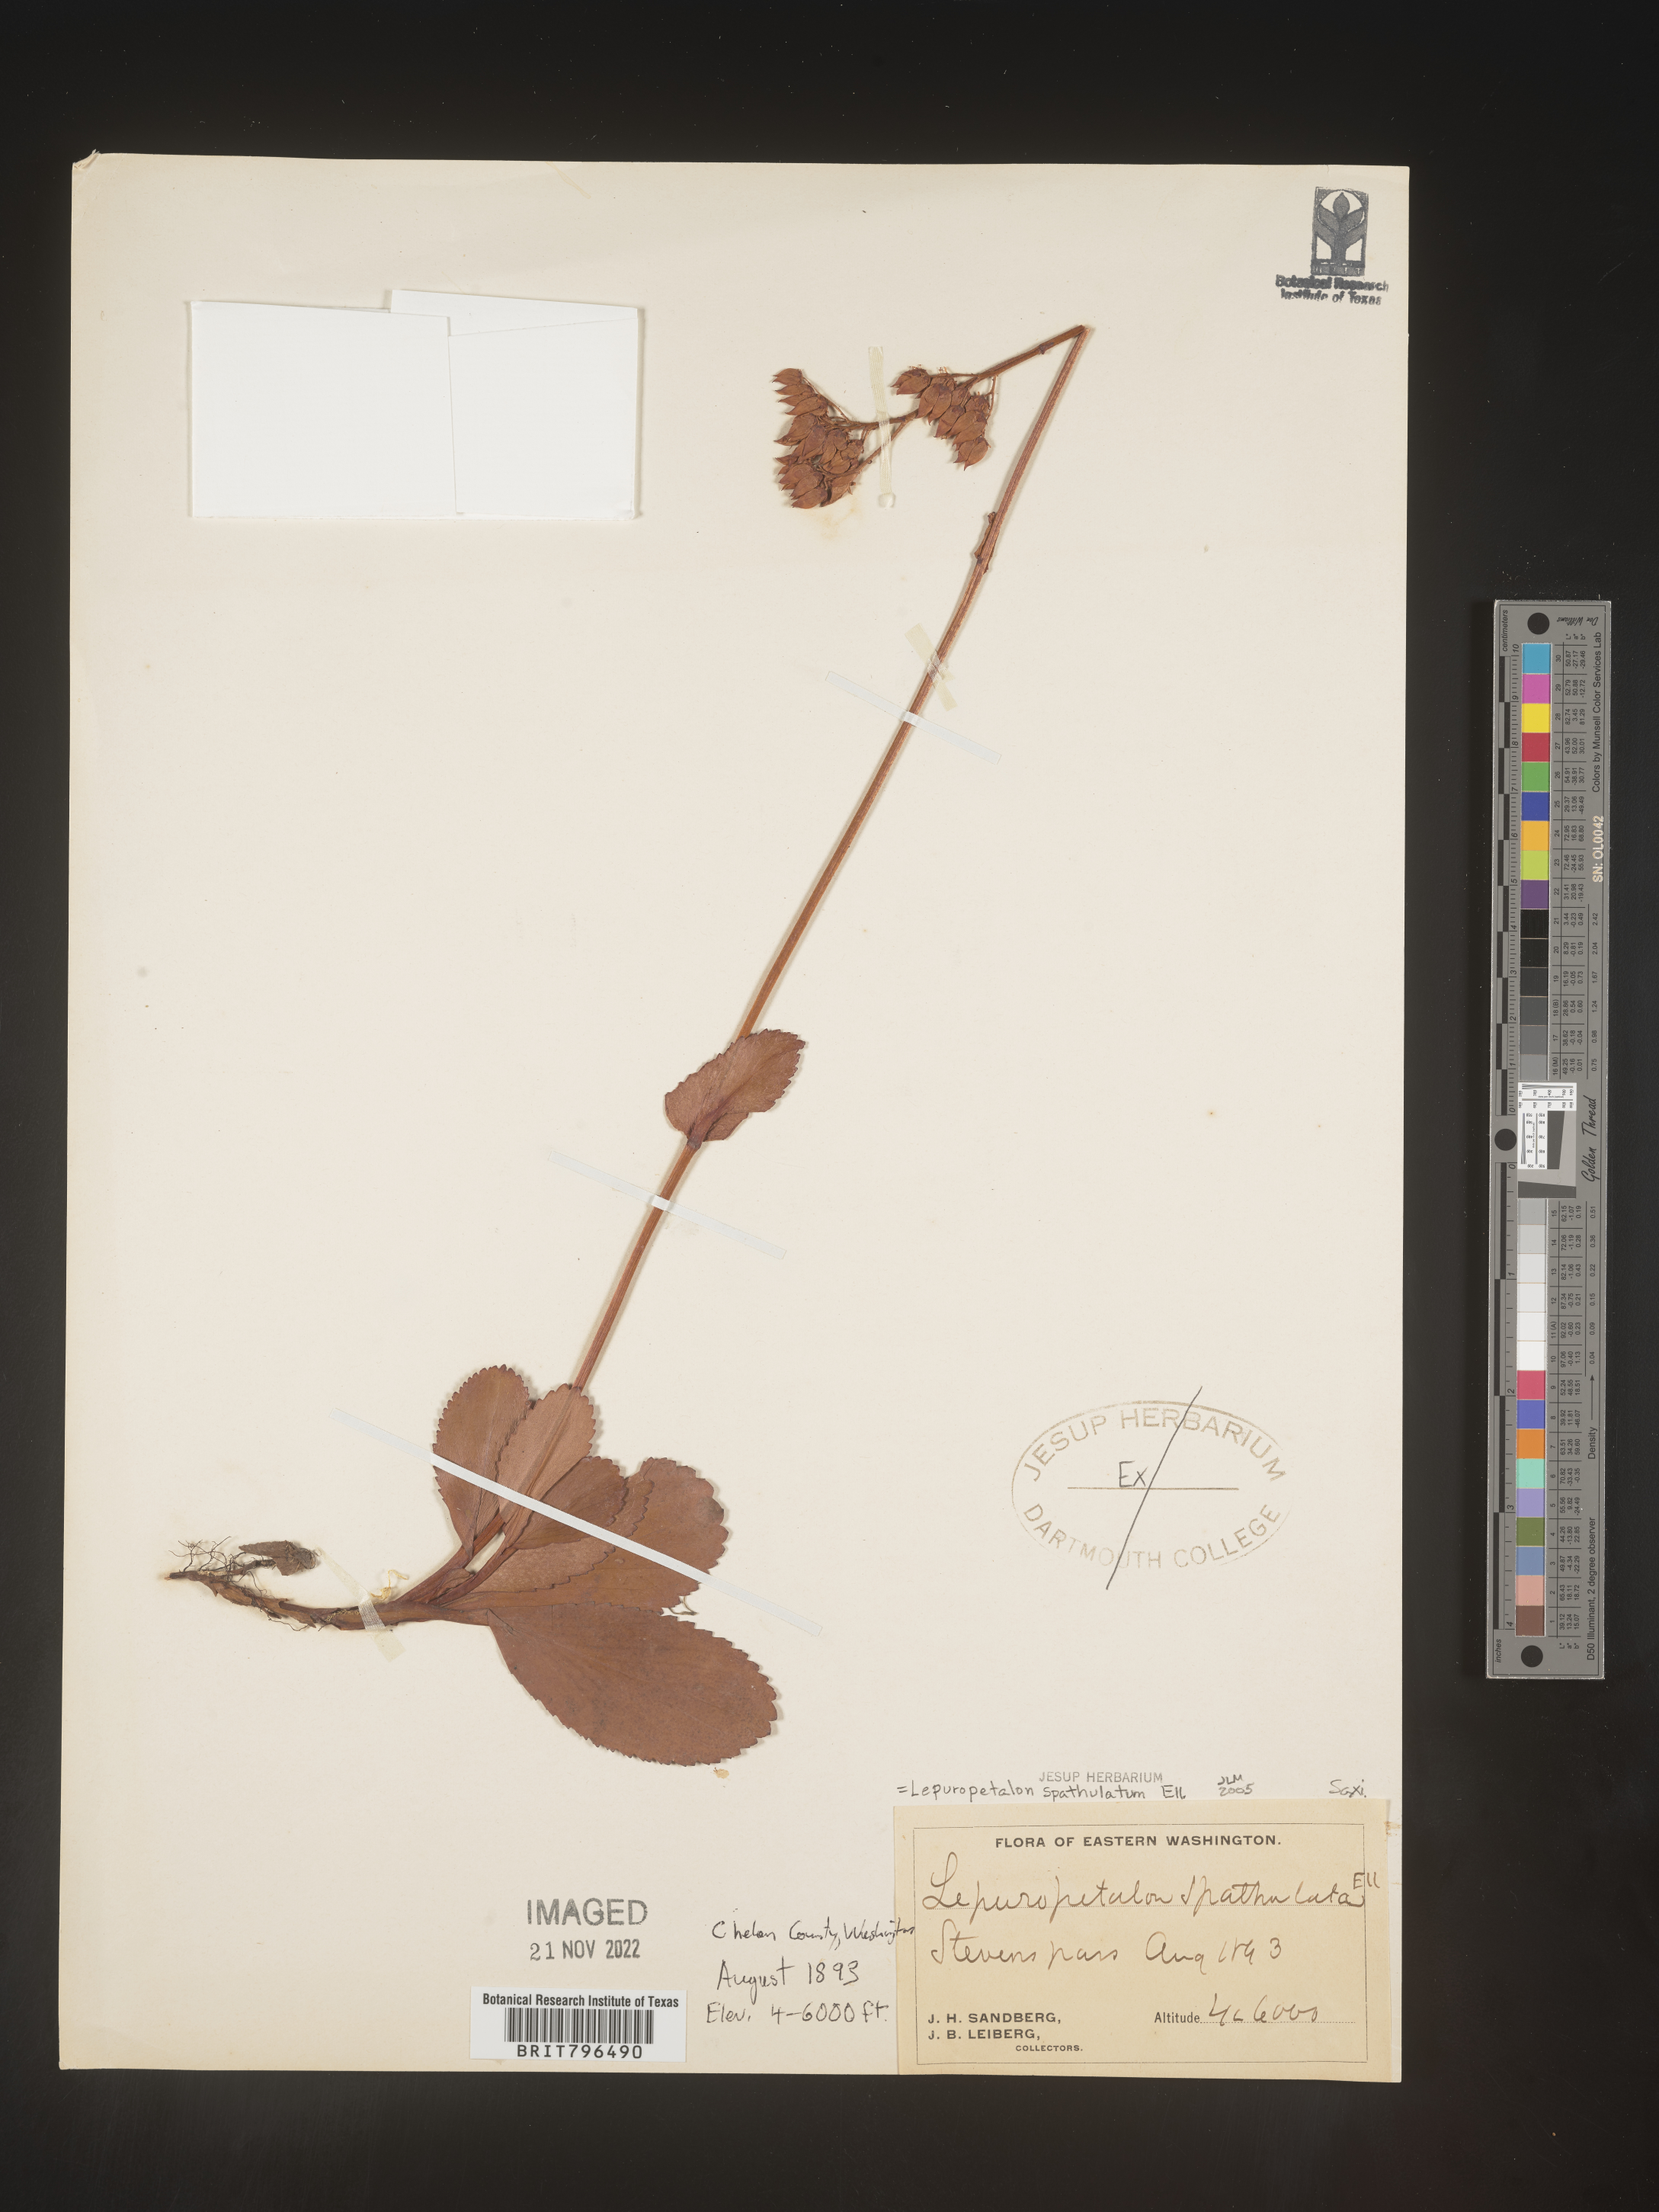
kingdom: Plantae
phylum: Tracheophyta
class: Magnoliopsida
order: Celastrales
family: Parnassiaceae
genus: Lepuropetalon
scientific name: Lepuropetalon
